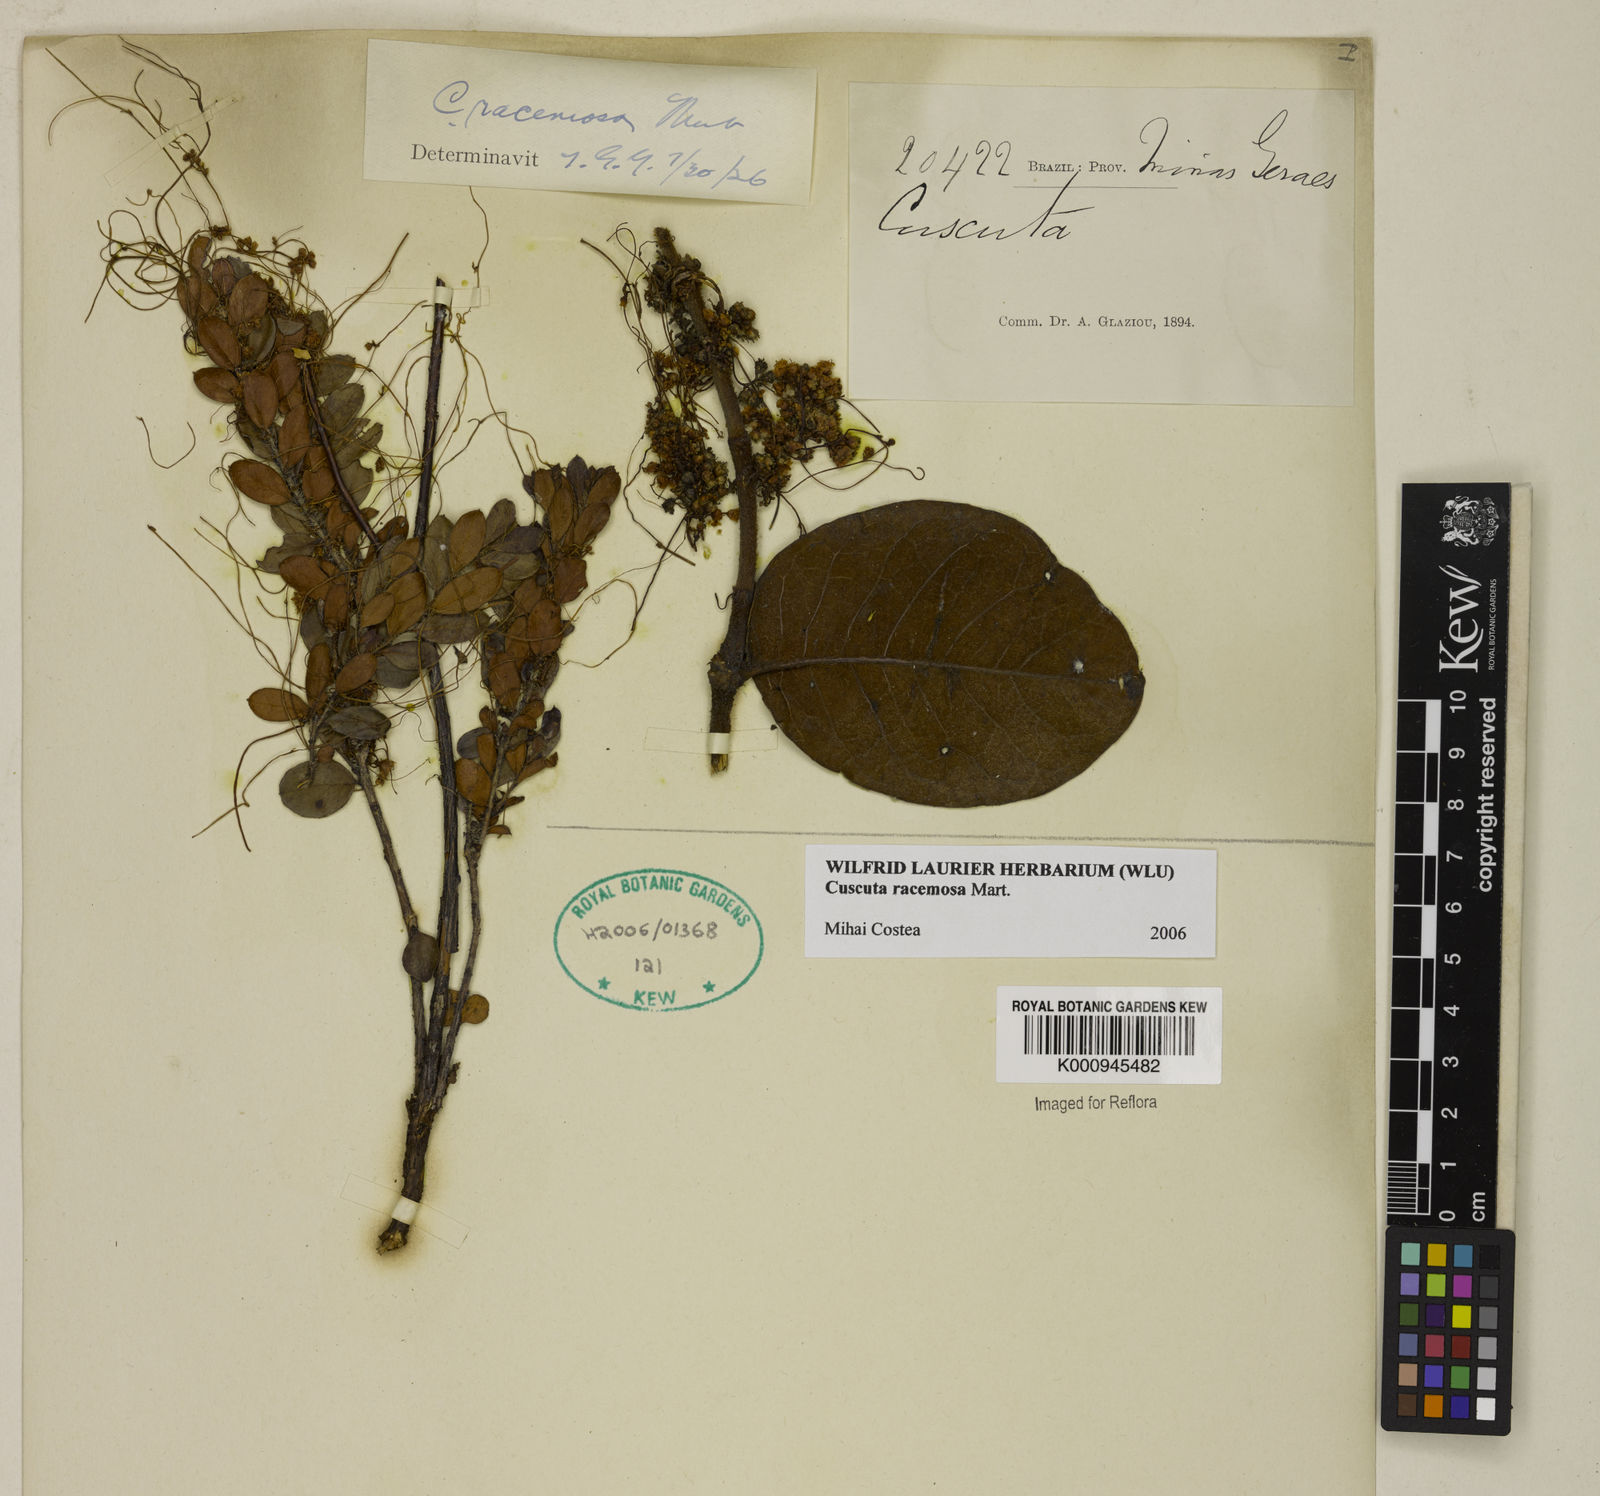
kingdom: Plantae
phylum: Tracheophyta
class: Magnoliopsida
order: Solanales
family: Convolvulaceae
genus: Cuscuta
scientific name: Cuscuta racemosa
